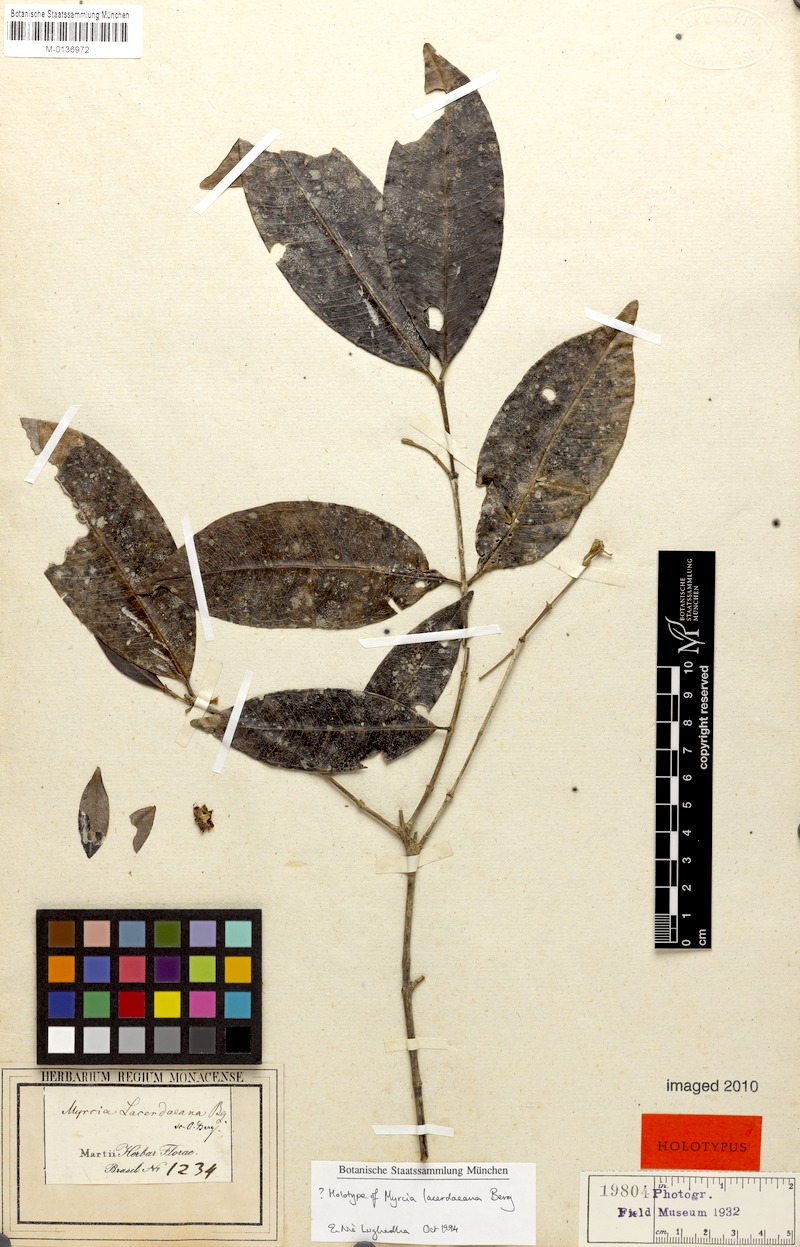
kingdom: Plantae
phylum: Tracheophyta
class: Magnoliopsida
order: Myrtales
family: Myrtaceae
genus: Myrcia
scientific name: Myrcia lacerdaeana
